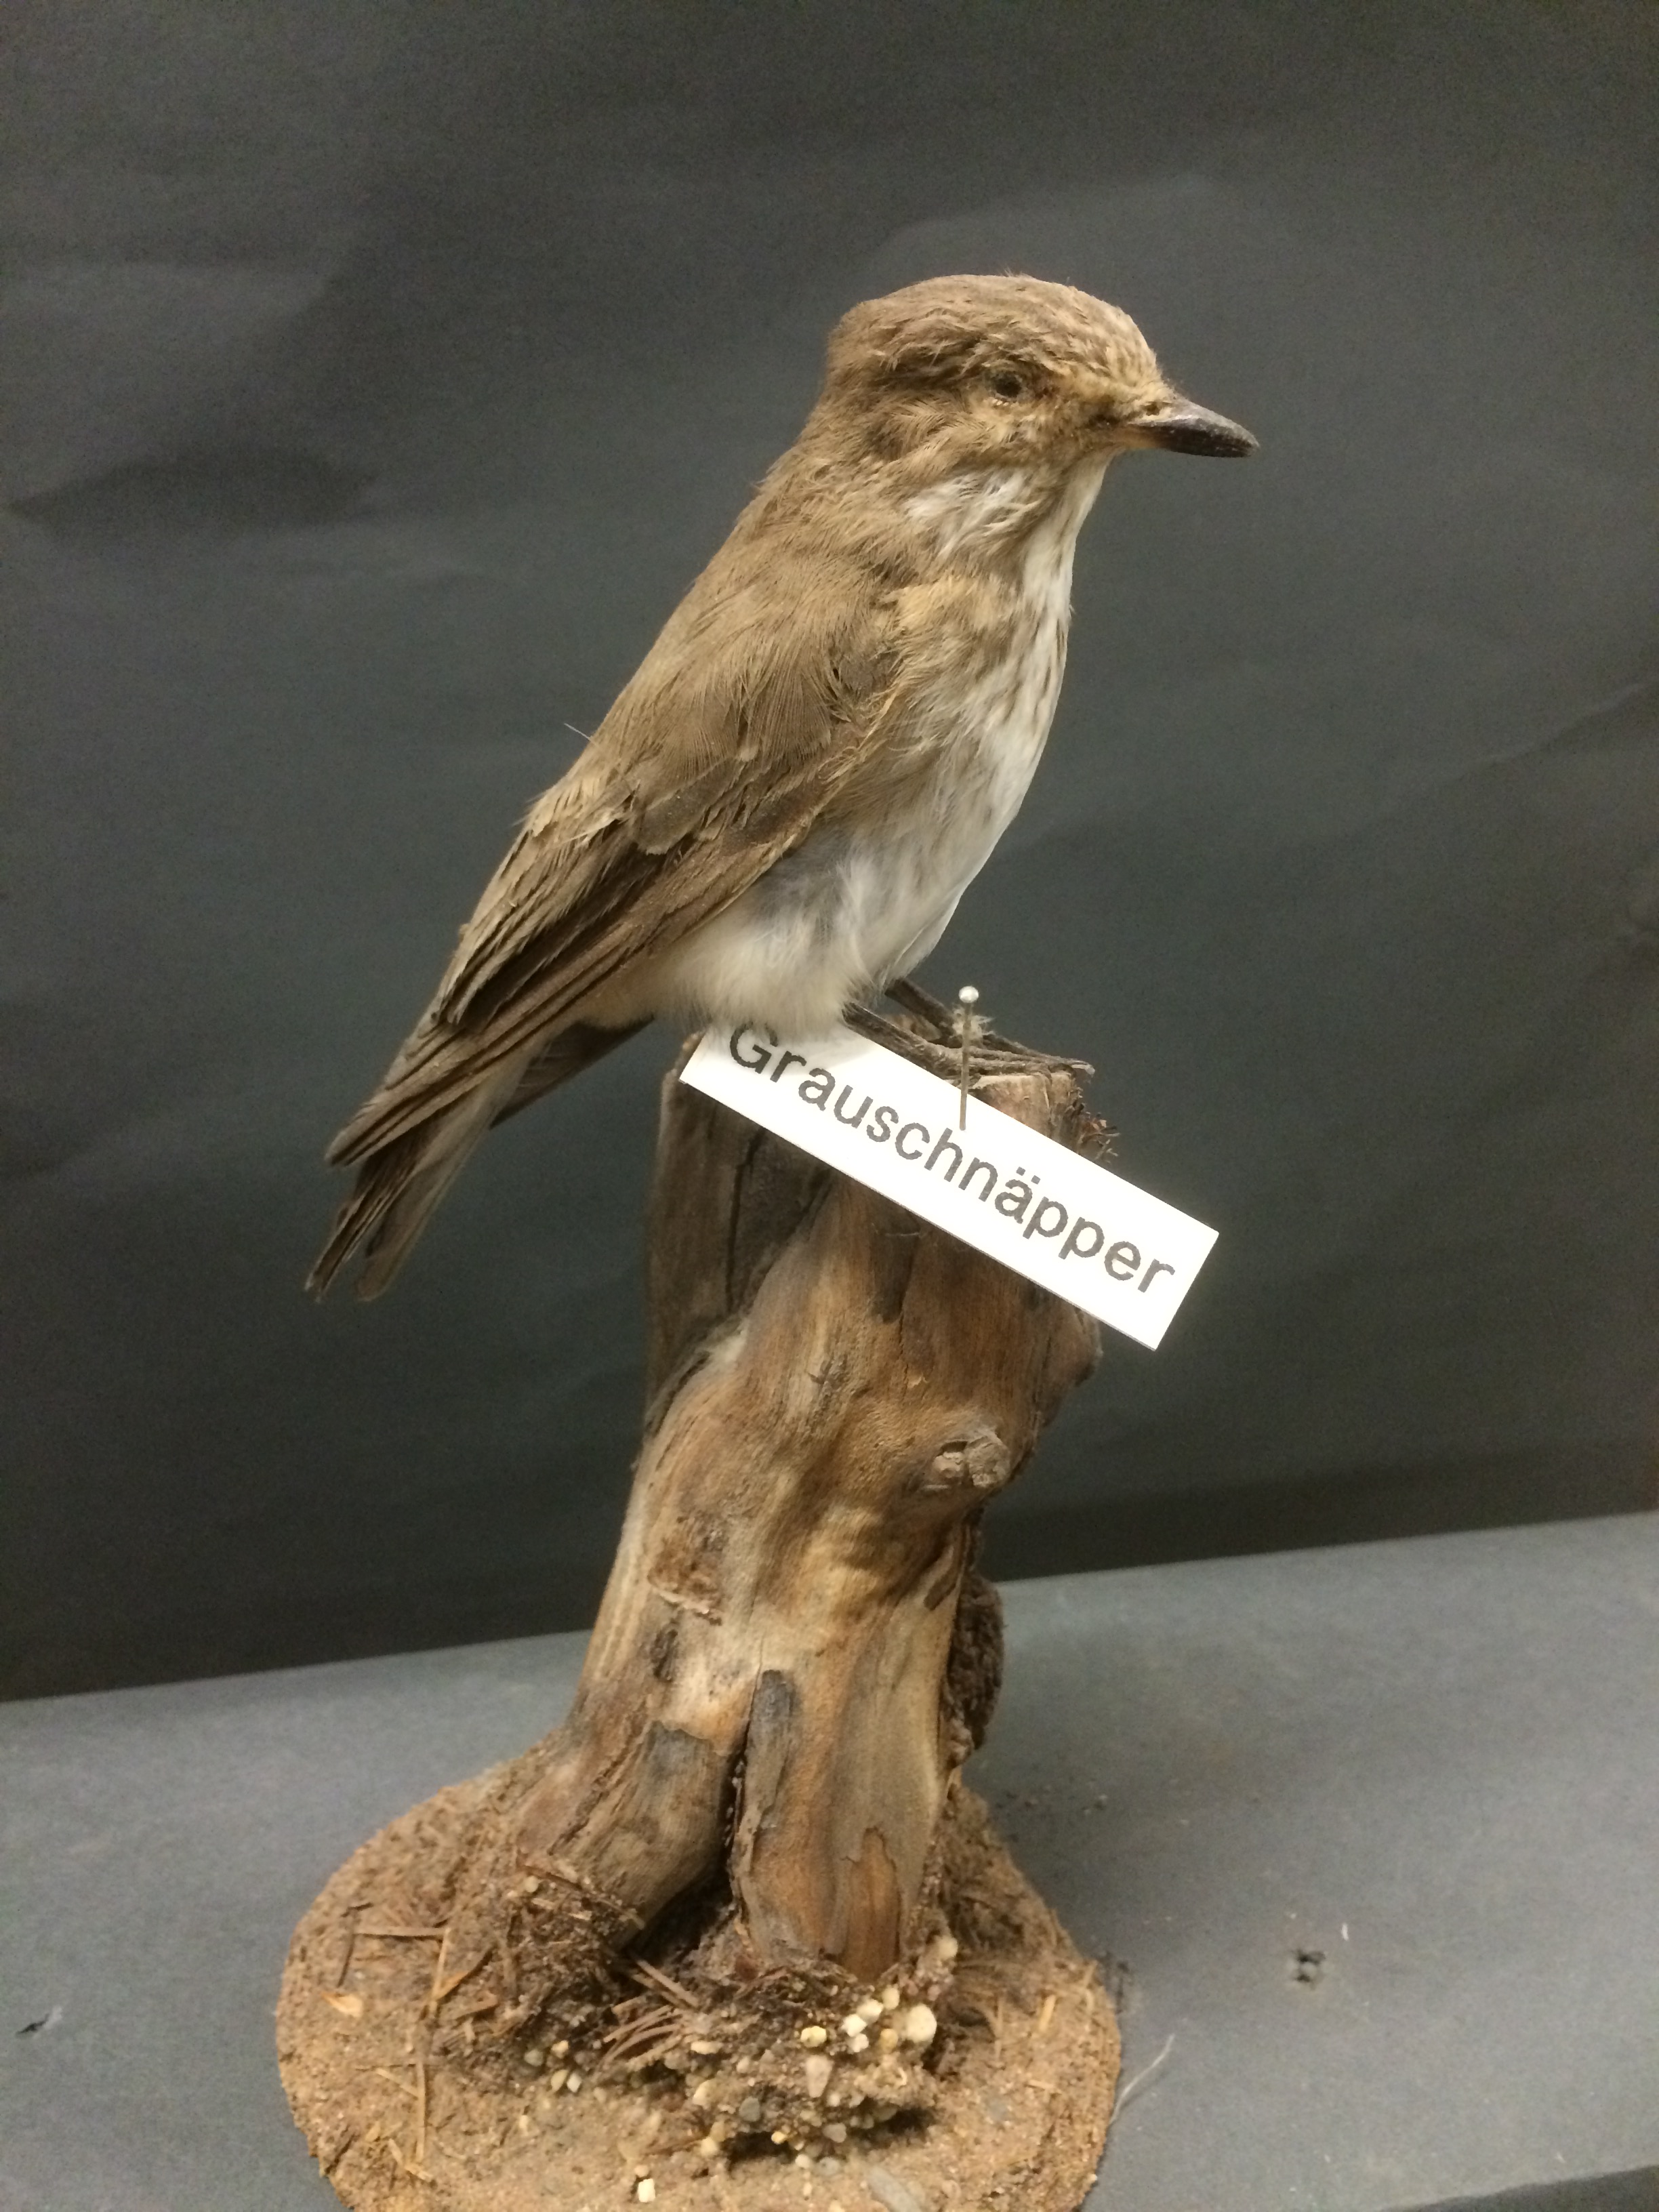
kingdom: Animalia
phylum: Chordata
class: Aves
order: Passeriformes
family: Muscicapidae
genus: Muscicapa
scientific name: Muscicapa striata
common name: Spotted flycatcher
